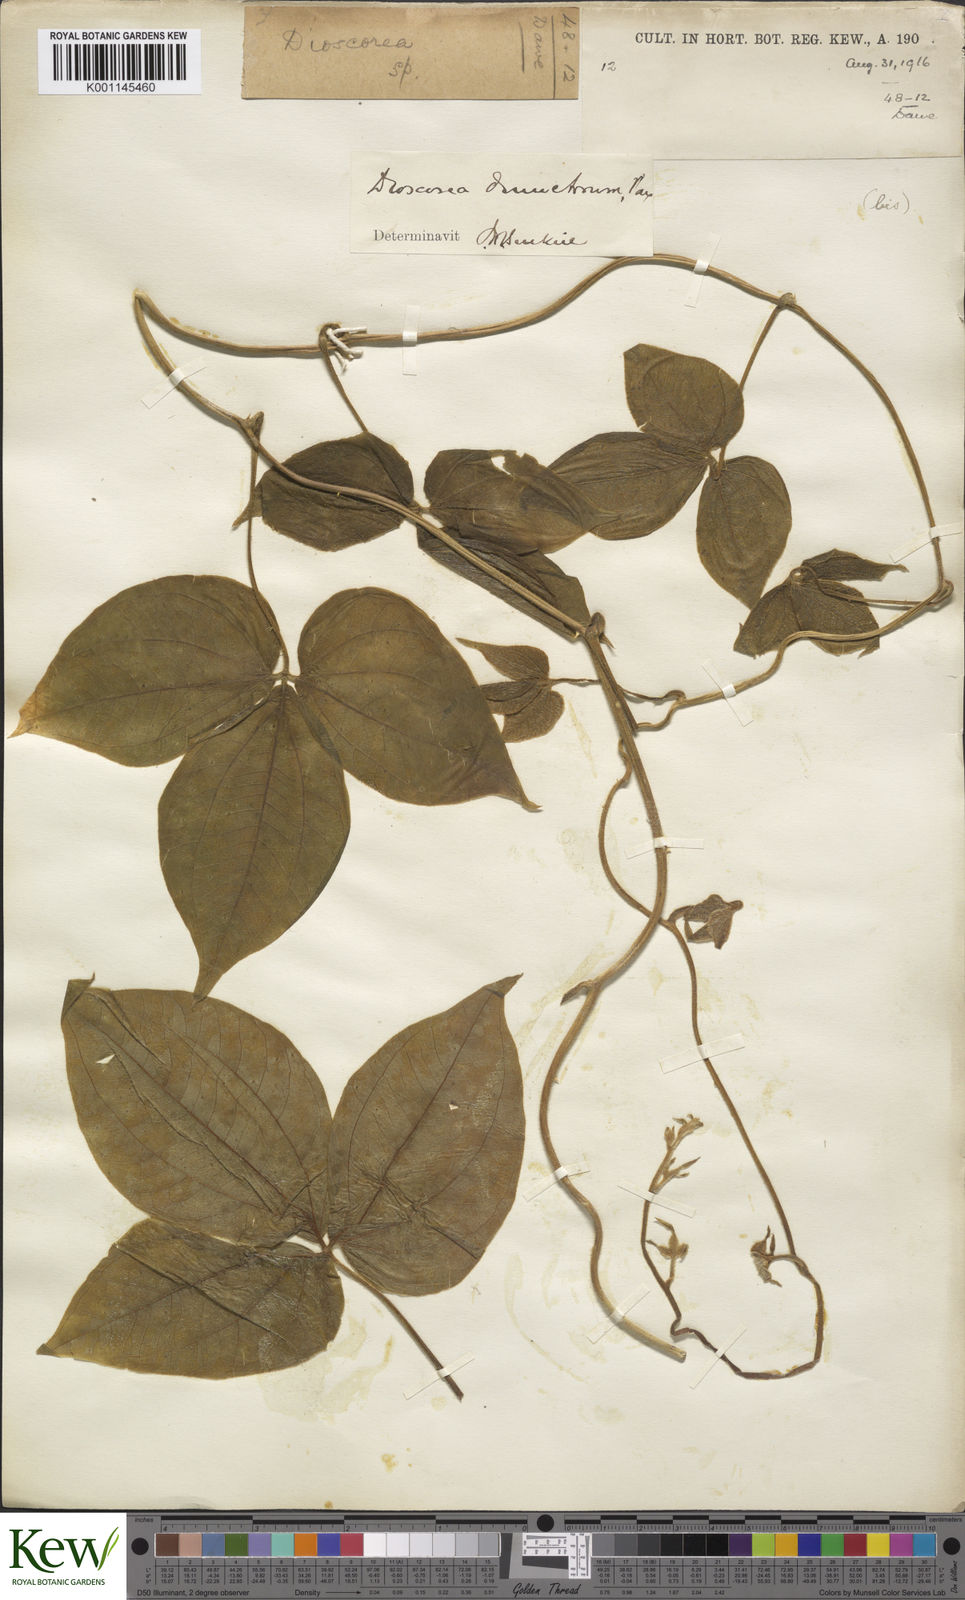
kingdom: Plantae
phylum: Tracheophyta
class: Liliopsida
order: Dioscoreales
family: Dioscoreaceae
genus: Dioscorea
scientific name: Dioscorea dumetorum
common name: African bitter yam
